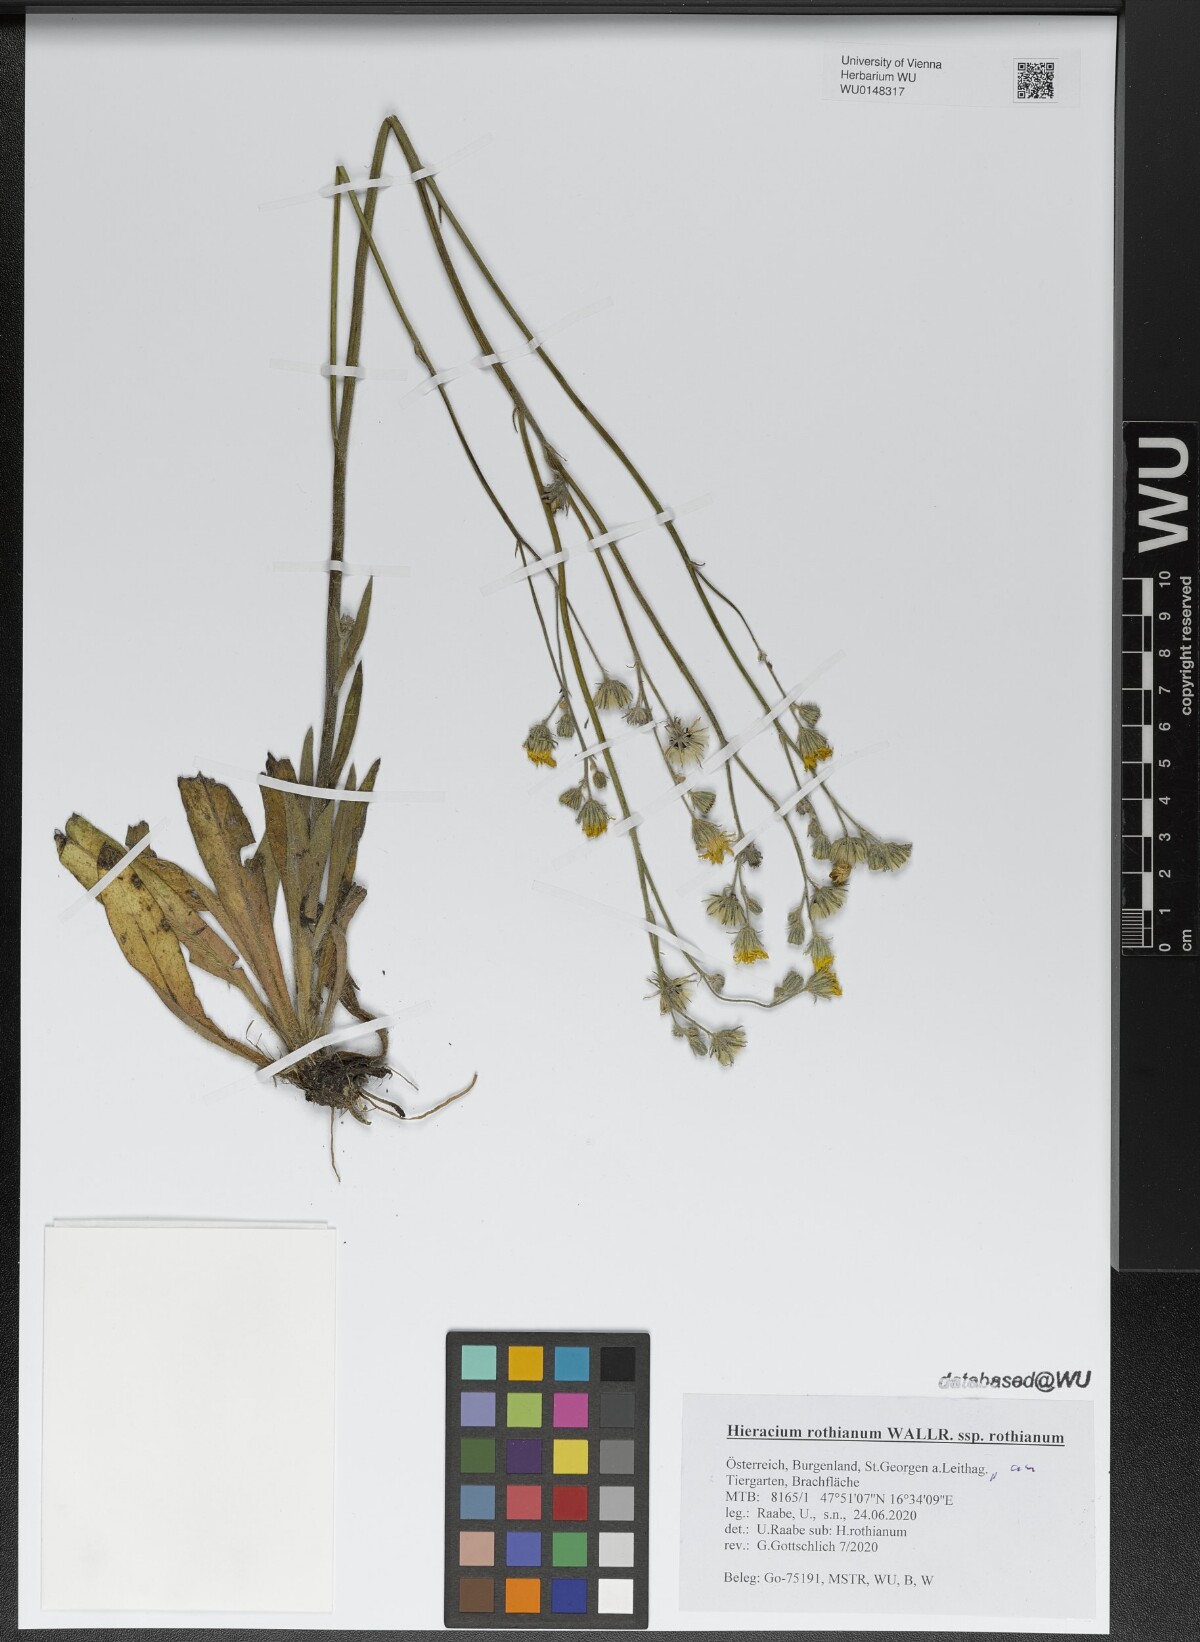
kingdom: Plantae
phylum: Tracheophyta
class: Magnoliopsida
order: Asterales
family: Asteraceae
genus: Pilosella
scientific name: Pilosella rothiana
